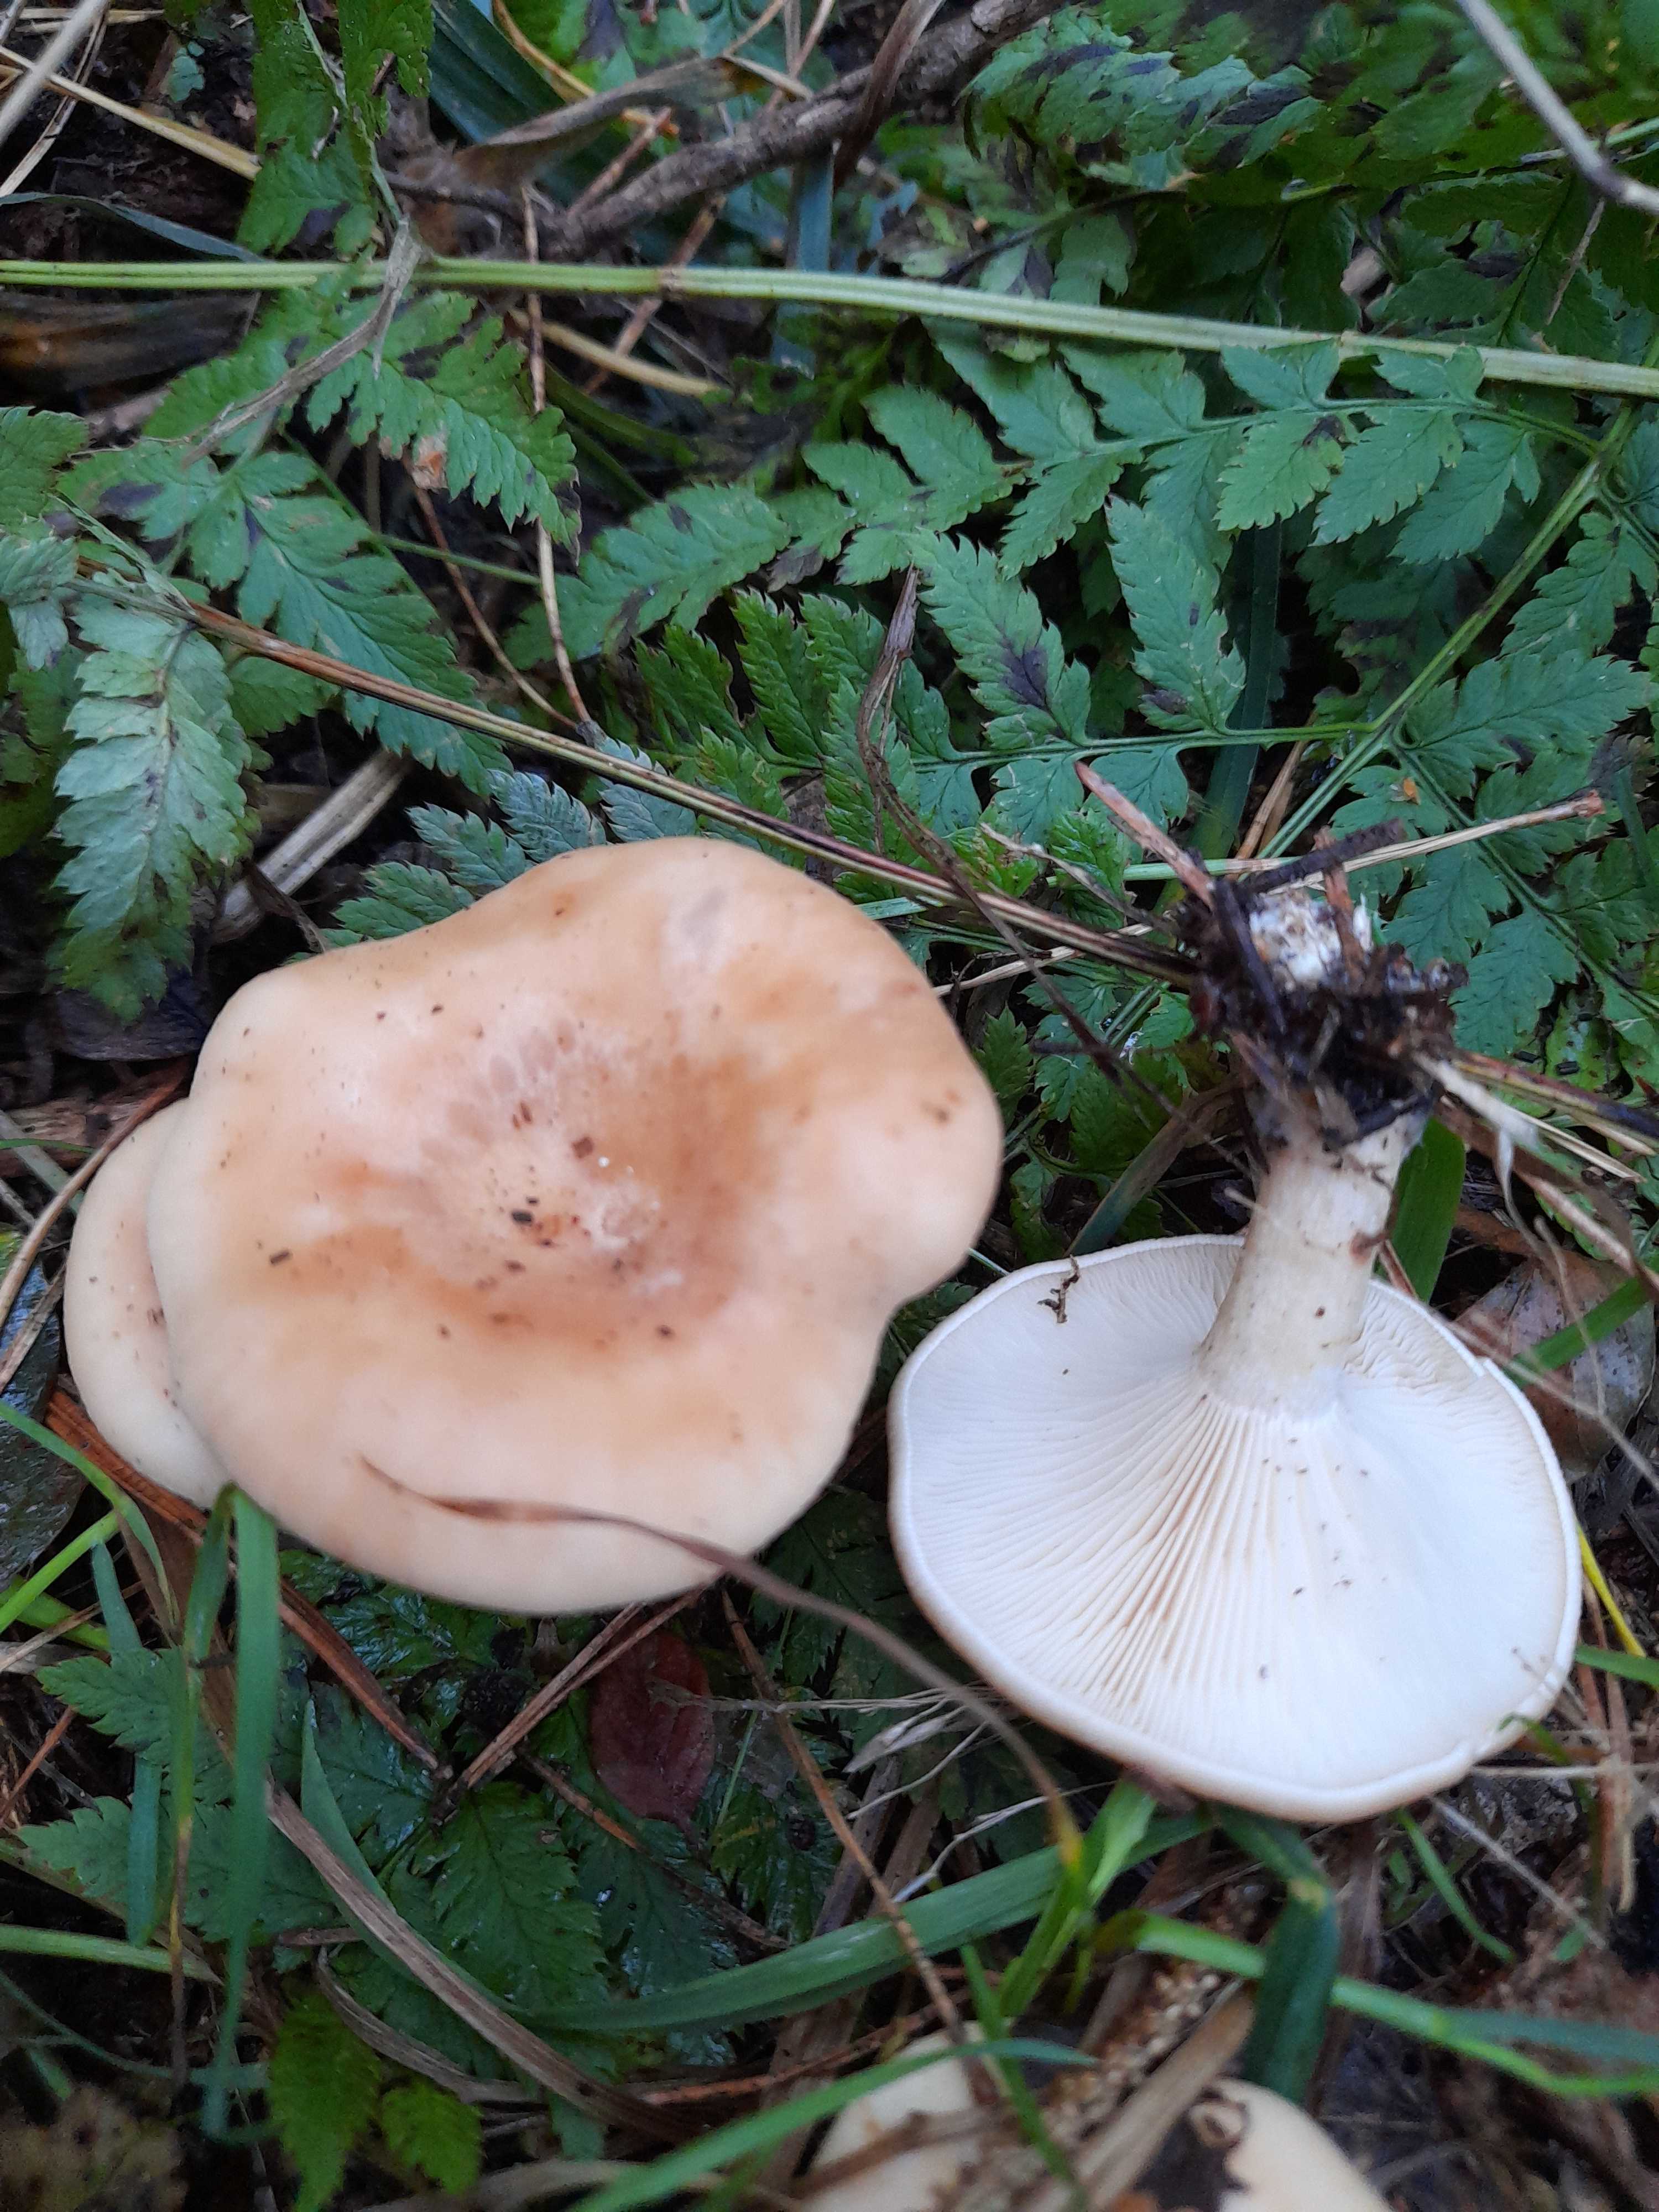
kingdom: Fungi
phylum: Basidiomycota
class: Agaricomycetes
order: Agaricales
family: Tricholomataceae
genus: Paralepista
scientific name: Paralepista flaccida
